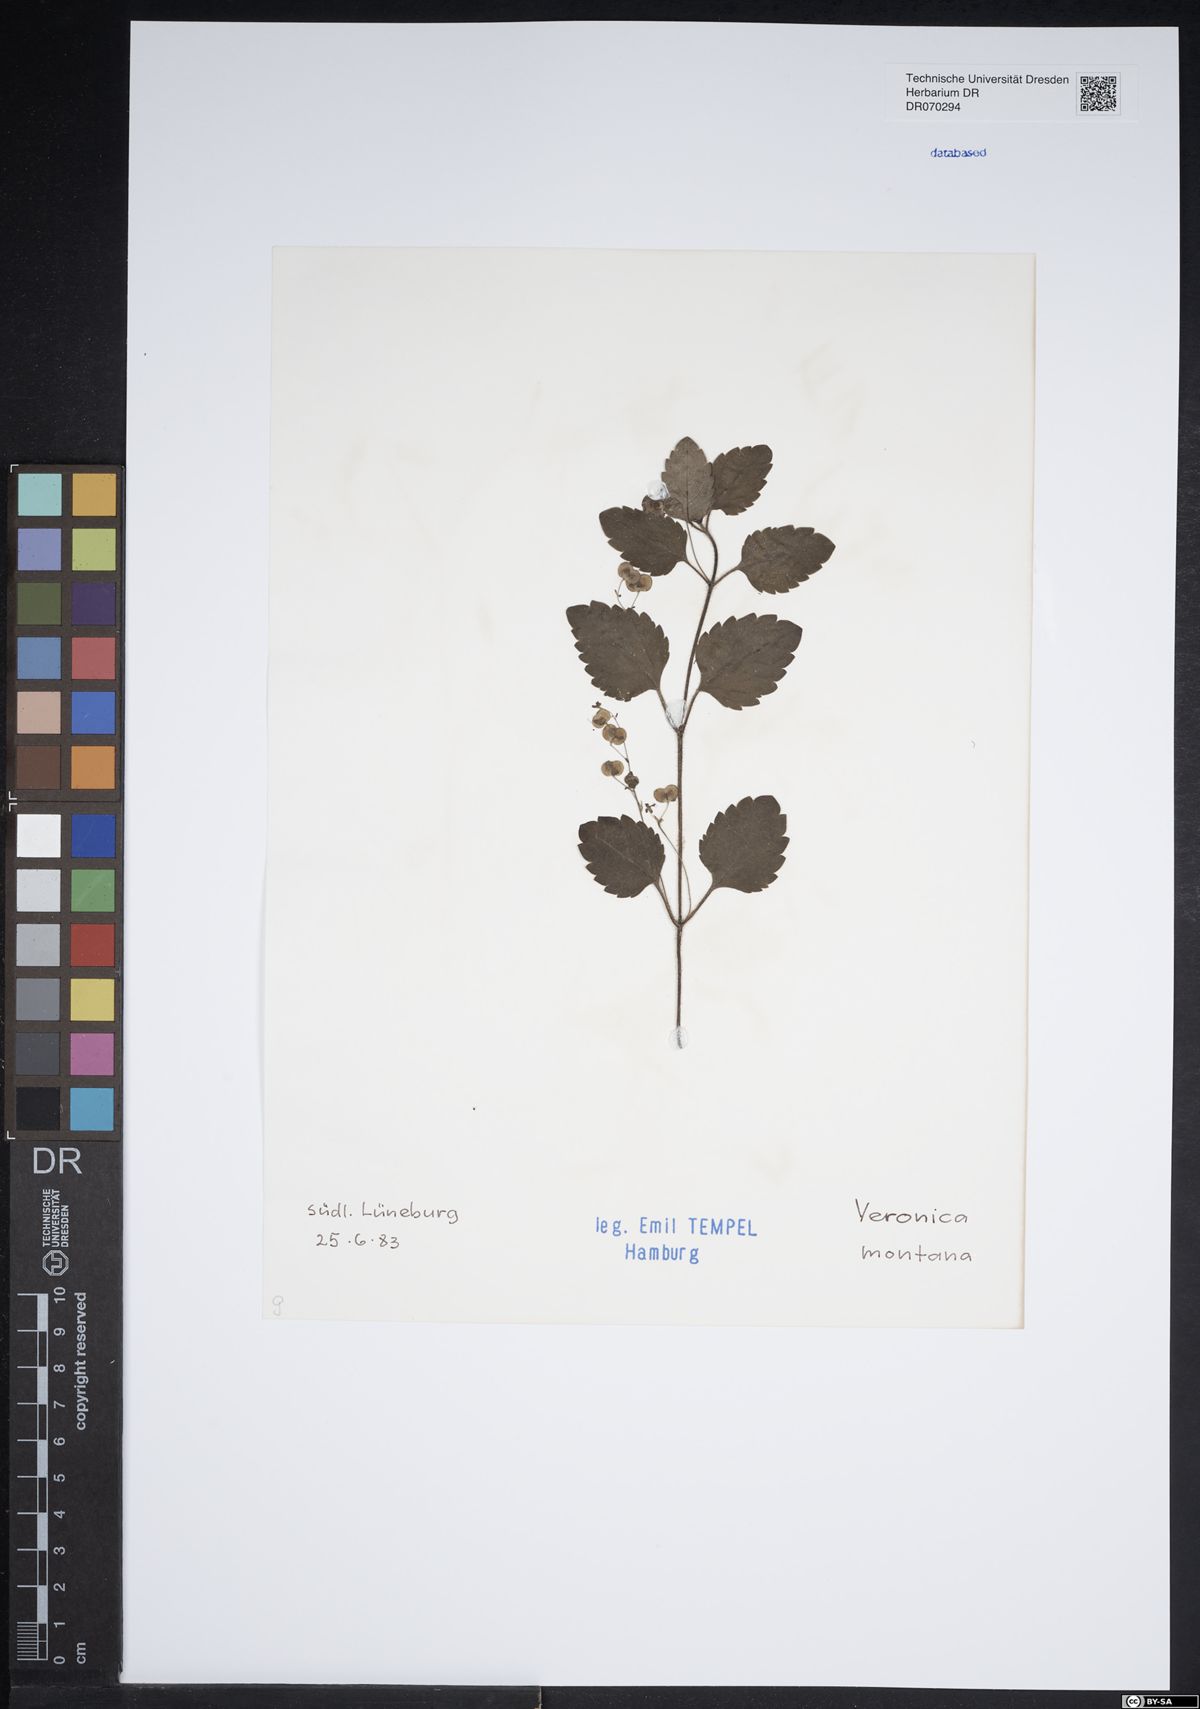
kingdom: Plantae
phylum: Tracheophyta
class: Magnoliopsida
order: Lamiales
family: Plantaginaceae
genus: Veronica
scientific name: Veronica montana
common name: Wood speedwell
